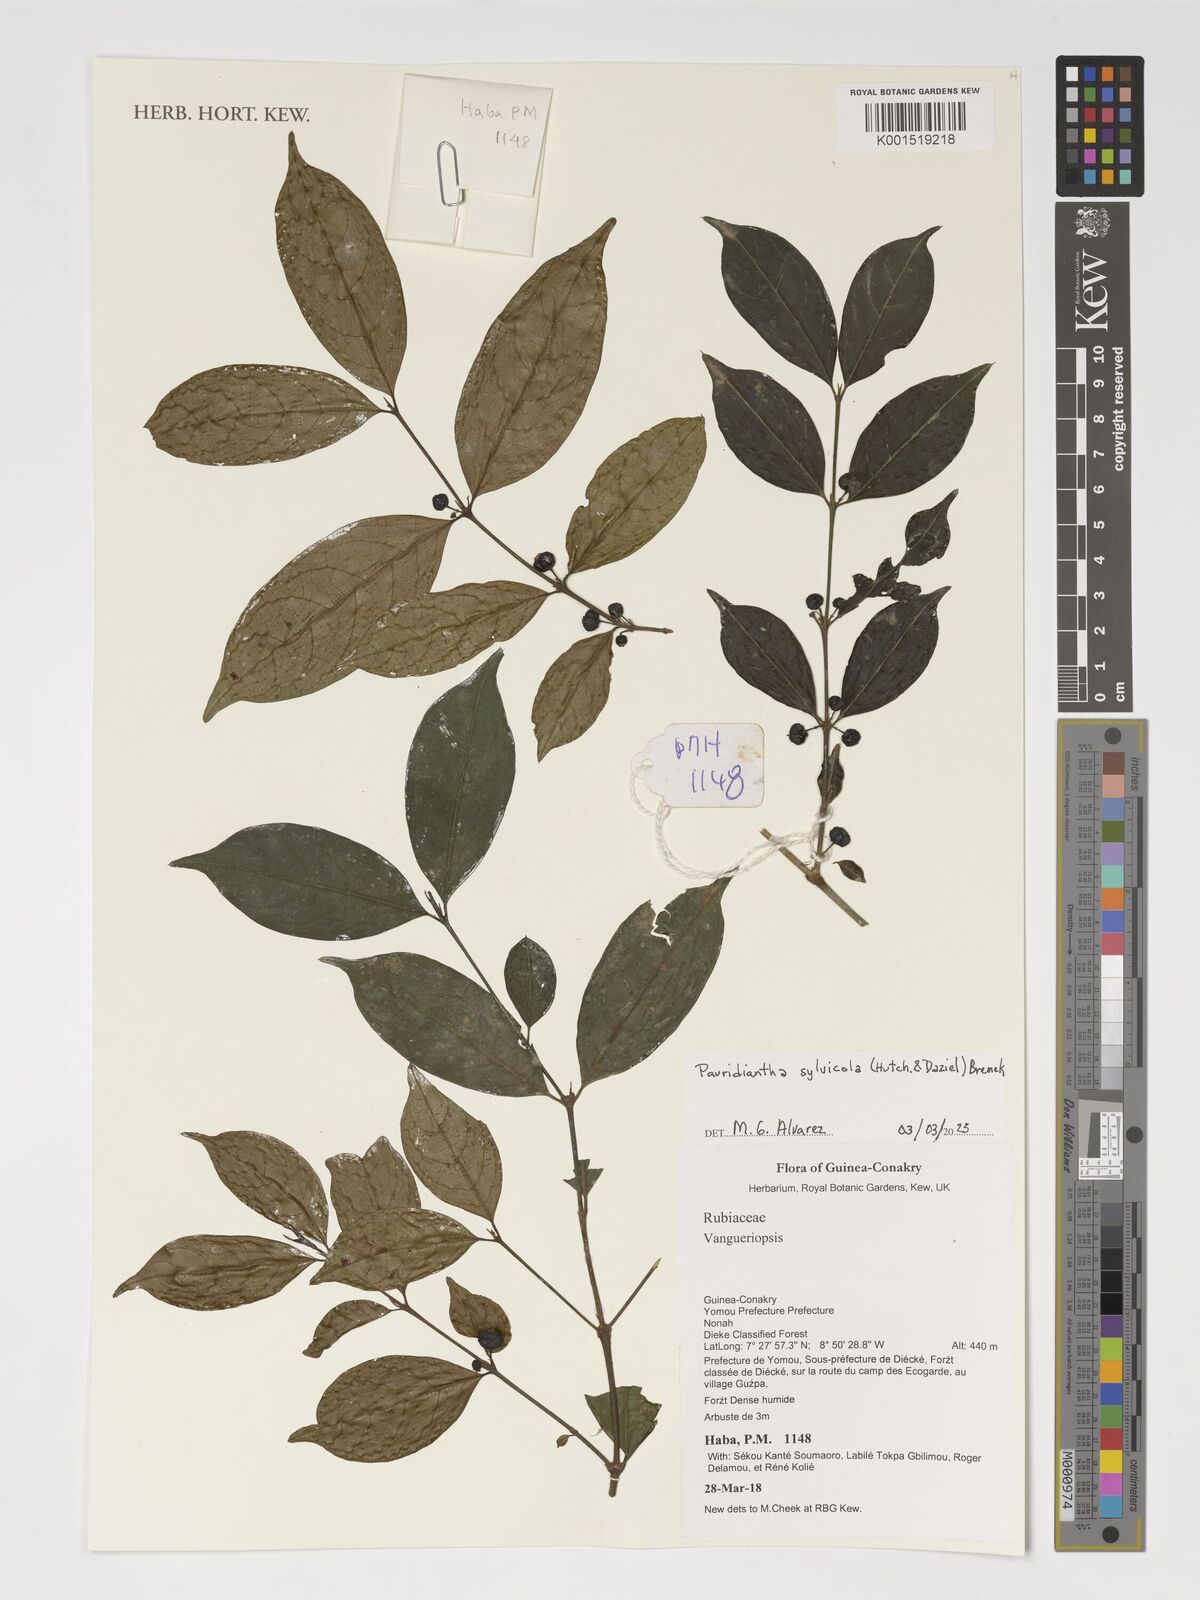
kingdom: Plantae
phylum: Tracheophyta
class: Magnoliopsida
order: Gentianales
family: Rubiaceae
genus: Pauridiantha
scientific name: Pauridiantha sylvicola
